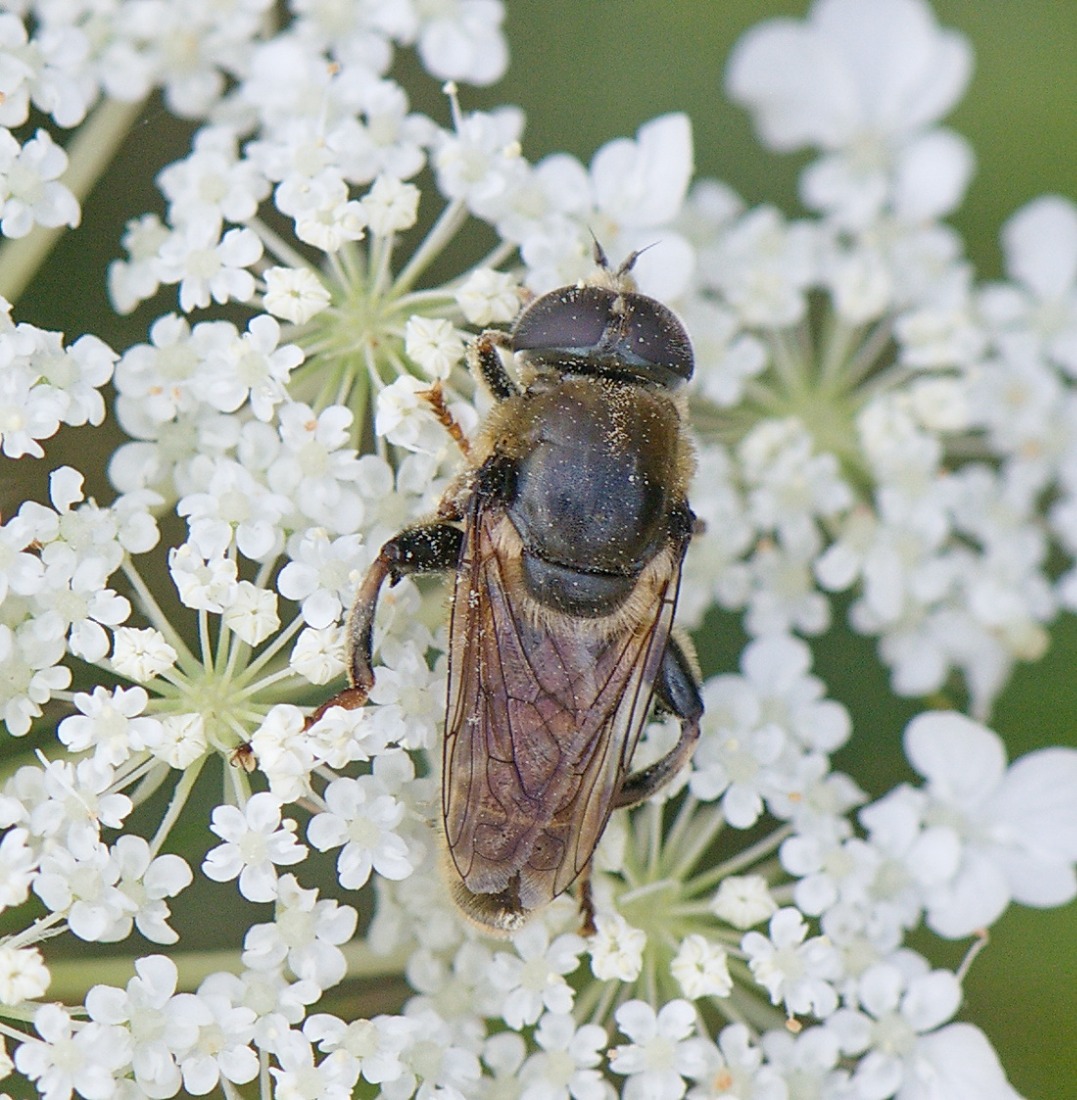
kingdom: Animalia
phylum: Arthropoda
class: Insecta
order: Diptera
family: Syrphidae
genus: Merodon
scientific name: Merodon avidus
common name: Smal narcisflue
